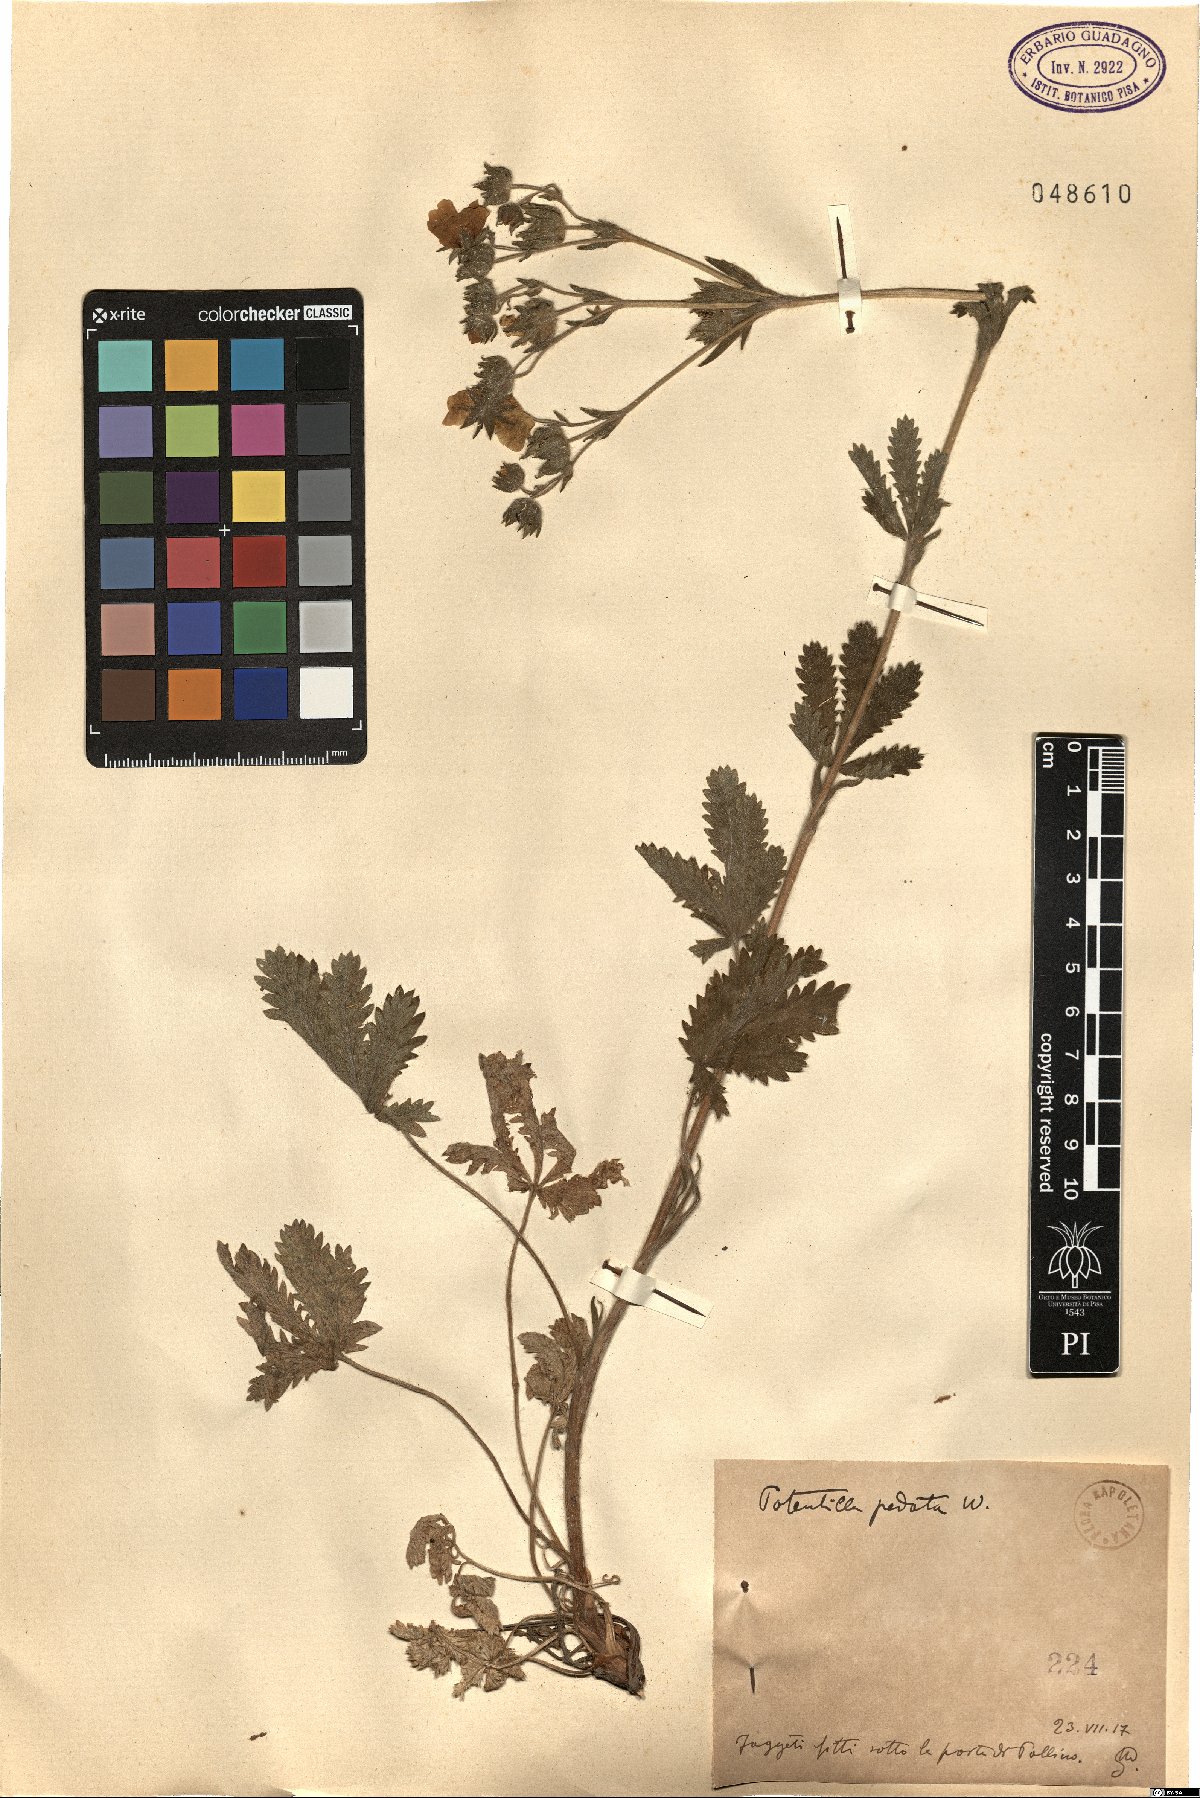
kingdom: Plantae
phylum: Tracheophyta
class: Magnoliopsida
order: Rosales
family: Rosaceae
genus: Potentilla
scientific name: Potentilla pedata
